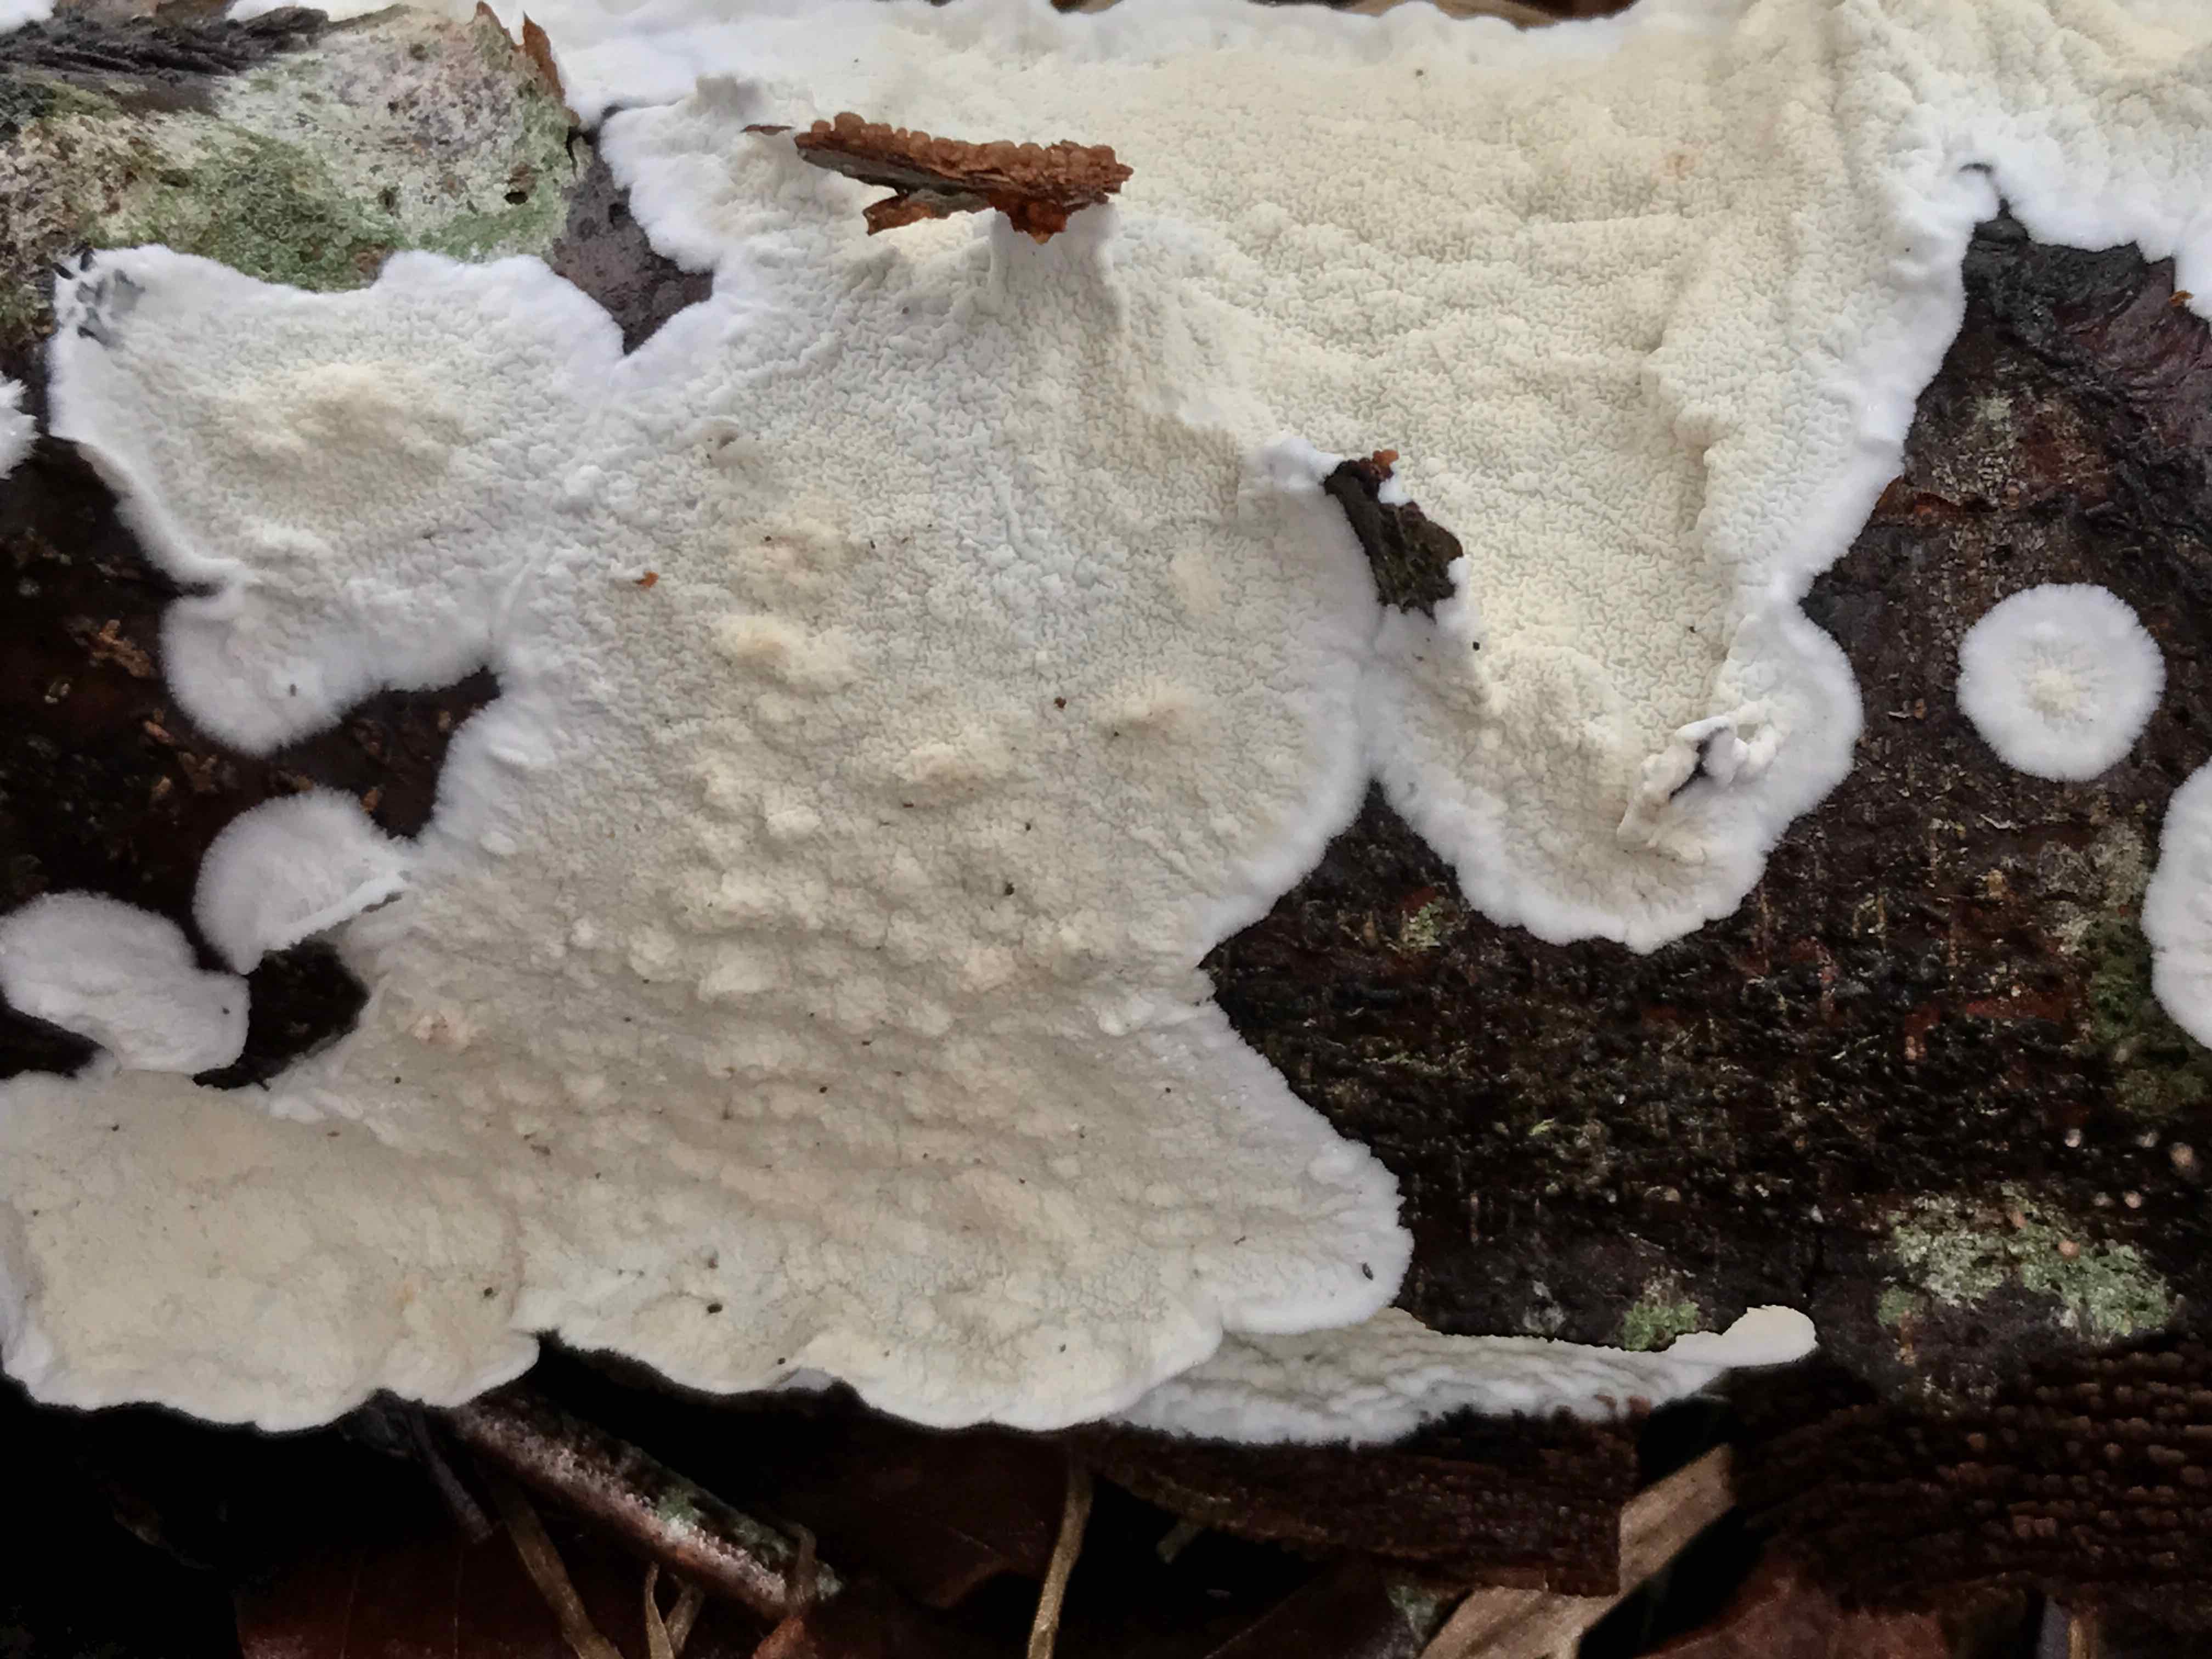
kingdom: Fungi
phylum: Basidiomycota
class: Agaricomycetes
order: Polyporales
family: Irpicaceae
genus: Byssomerulius
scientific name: Byssomerulius corium
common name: læder-åresvamp
